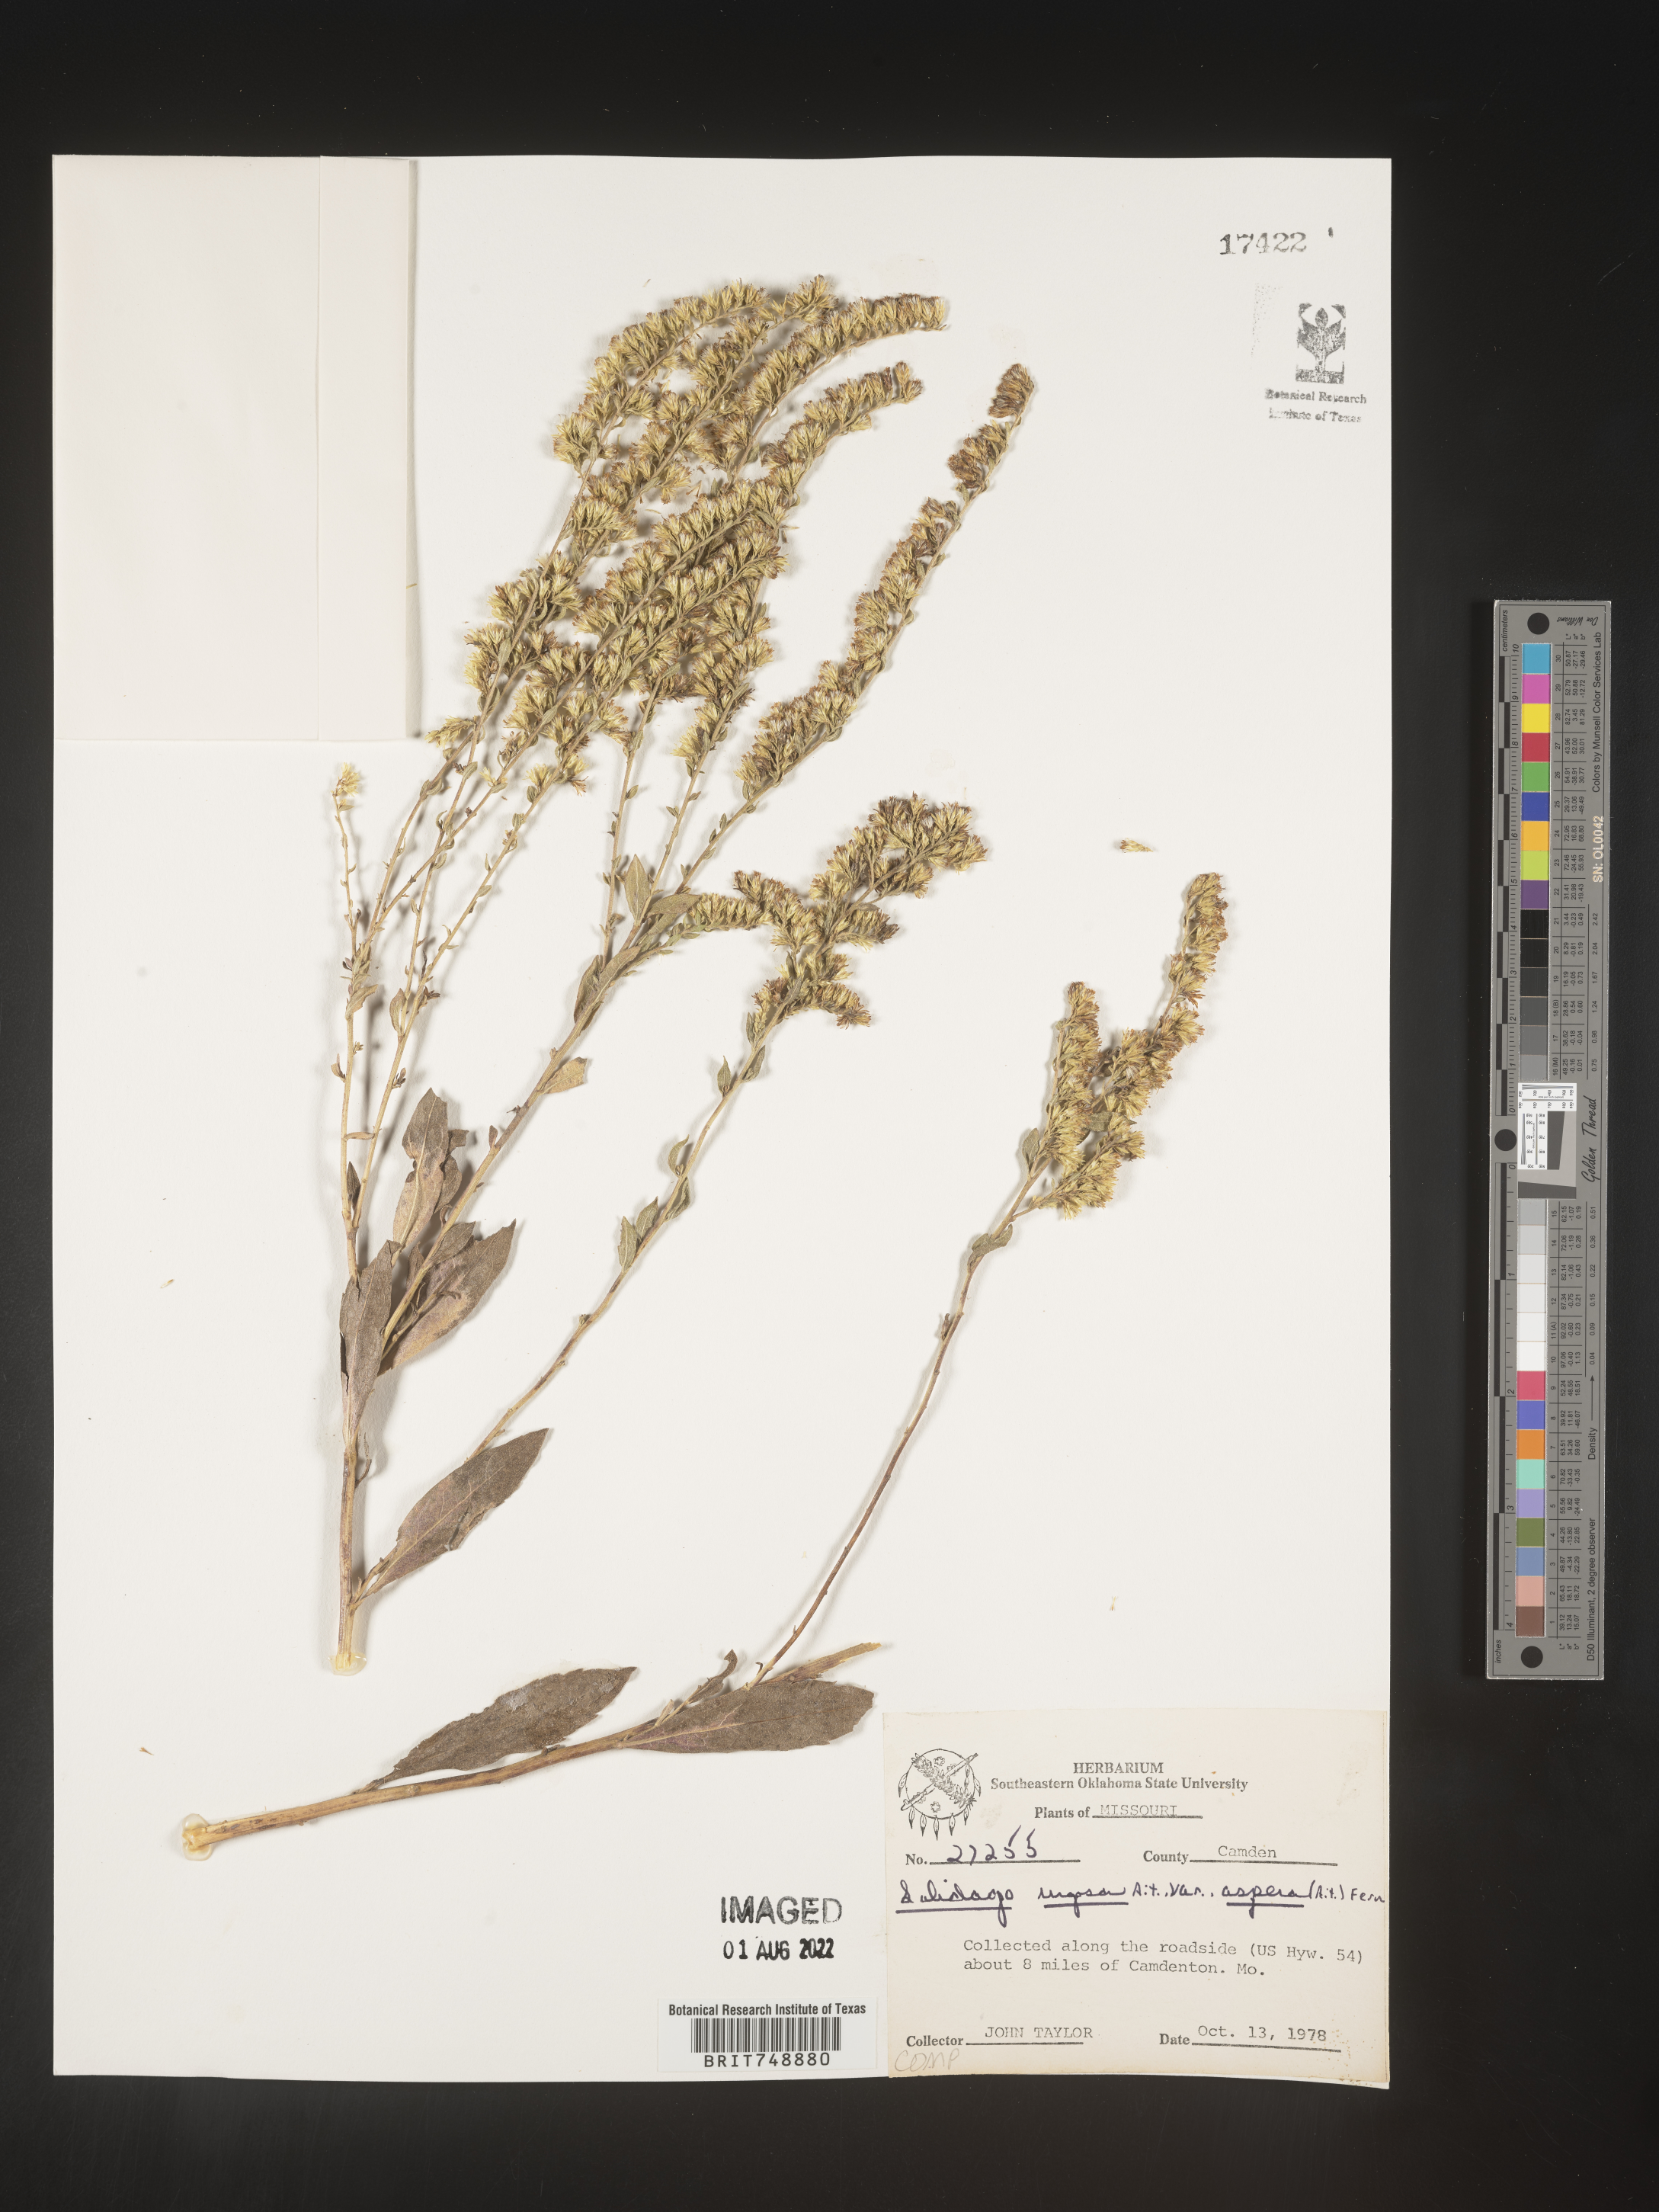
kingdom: Plantae
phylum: Tracheophyta
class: Magnoliopsida
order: Asterales
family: Asteraceae
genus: Solidago
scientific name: Solidago rugosa
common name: Rough-stemmed goldenrod
